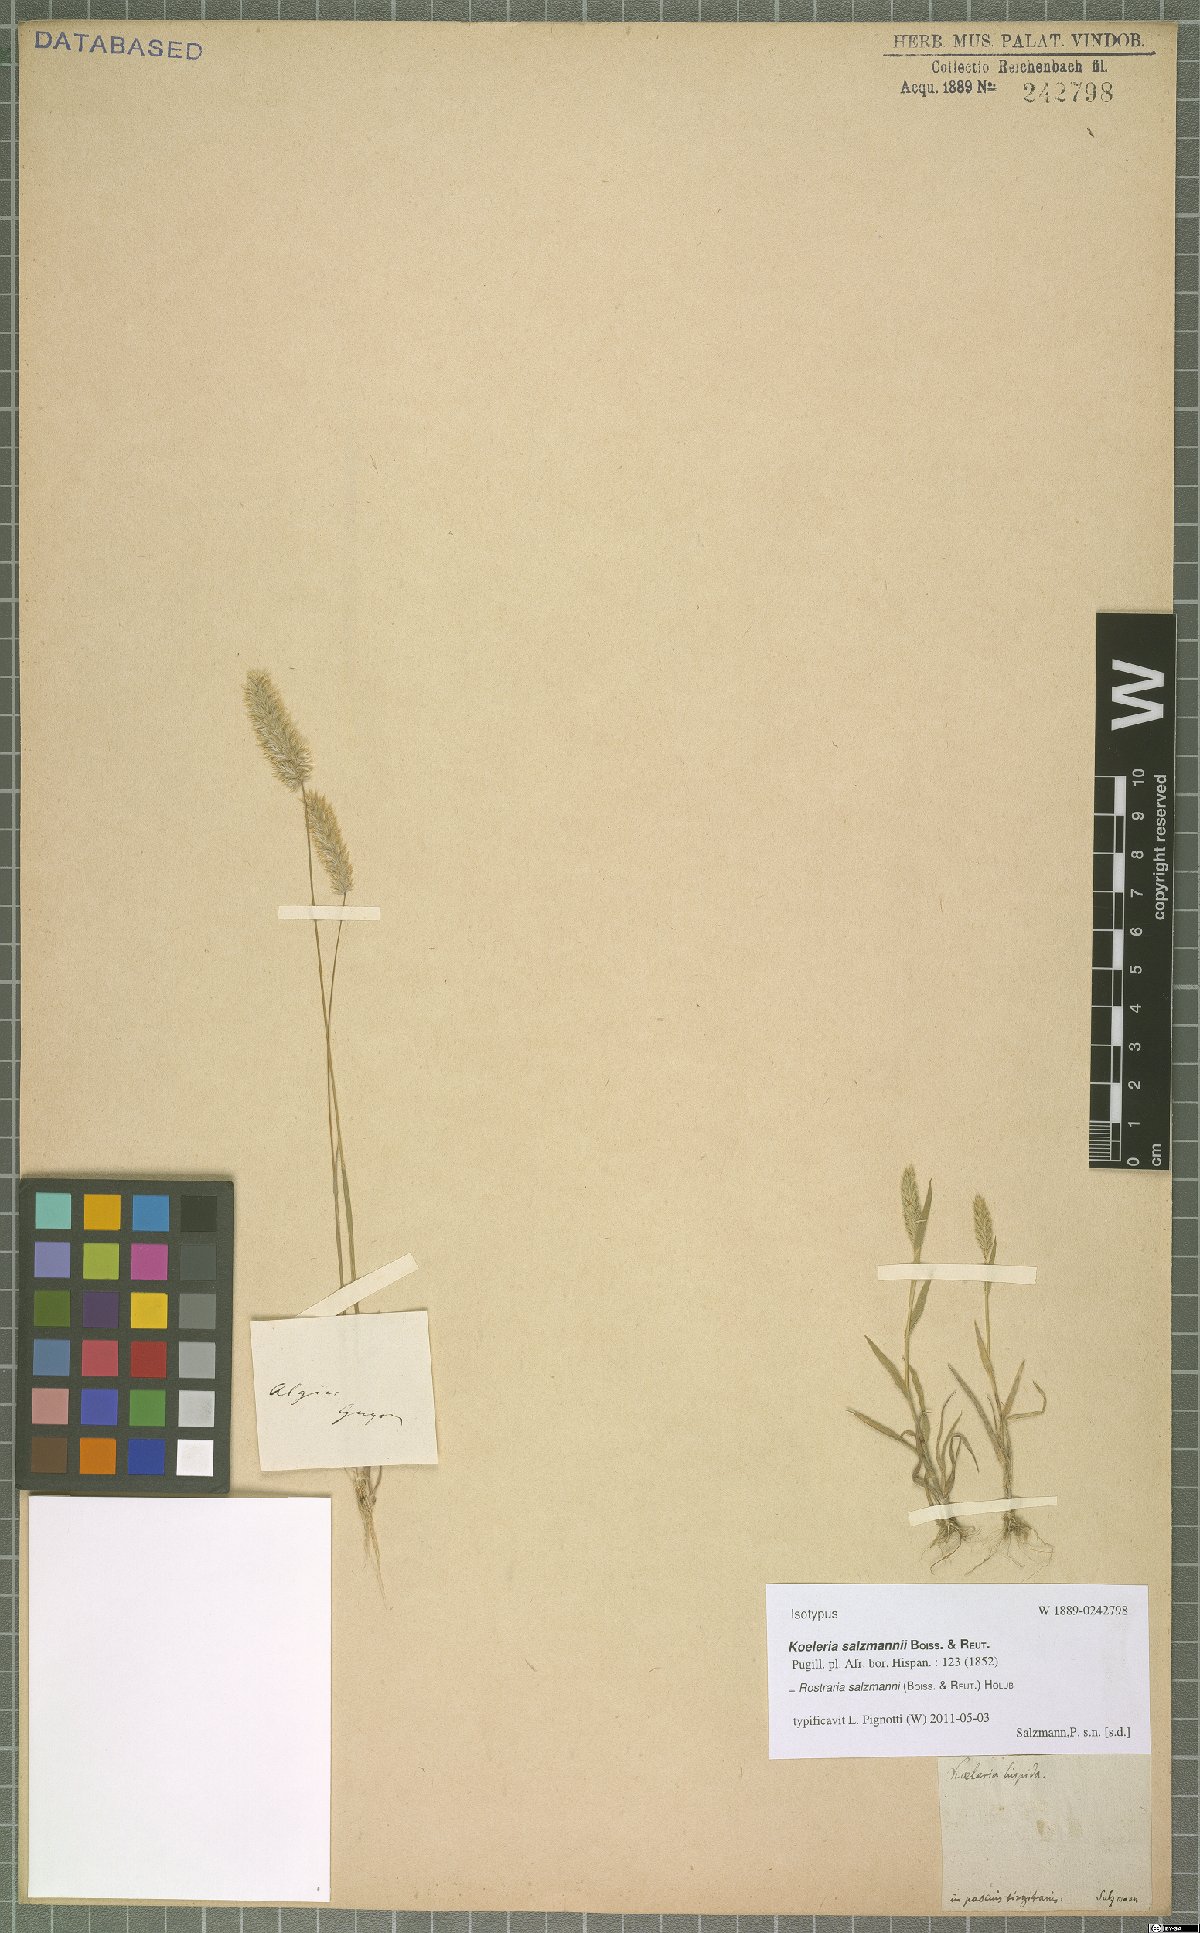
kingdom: Plantae
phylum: Tracheophyta
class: Liliopsida
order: Poales
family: Poaceae
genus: Rostraria
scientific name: Rostraria salzmannii
